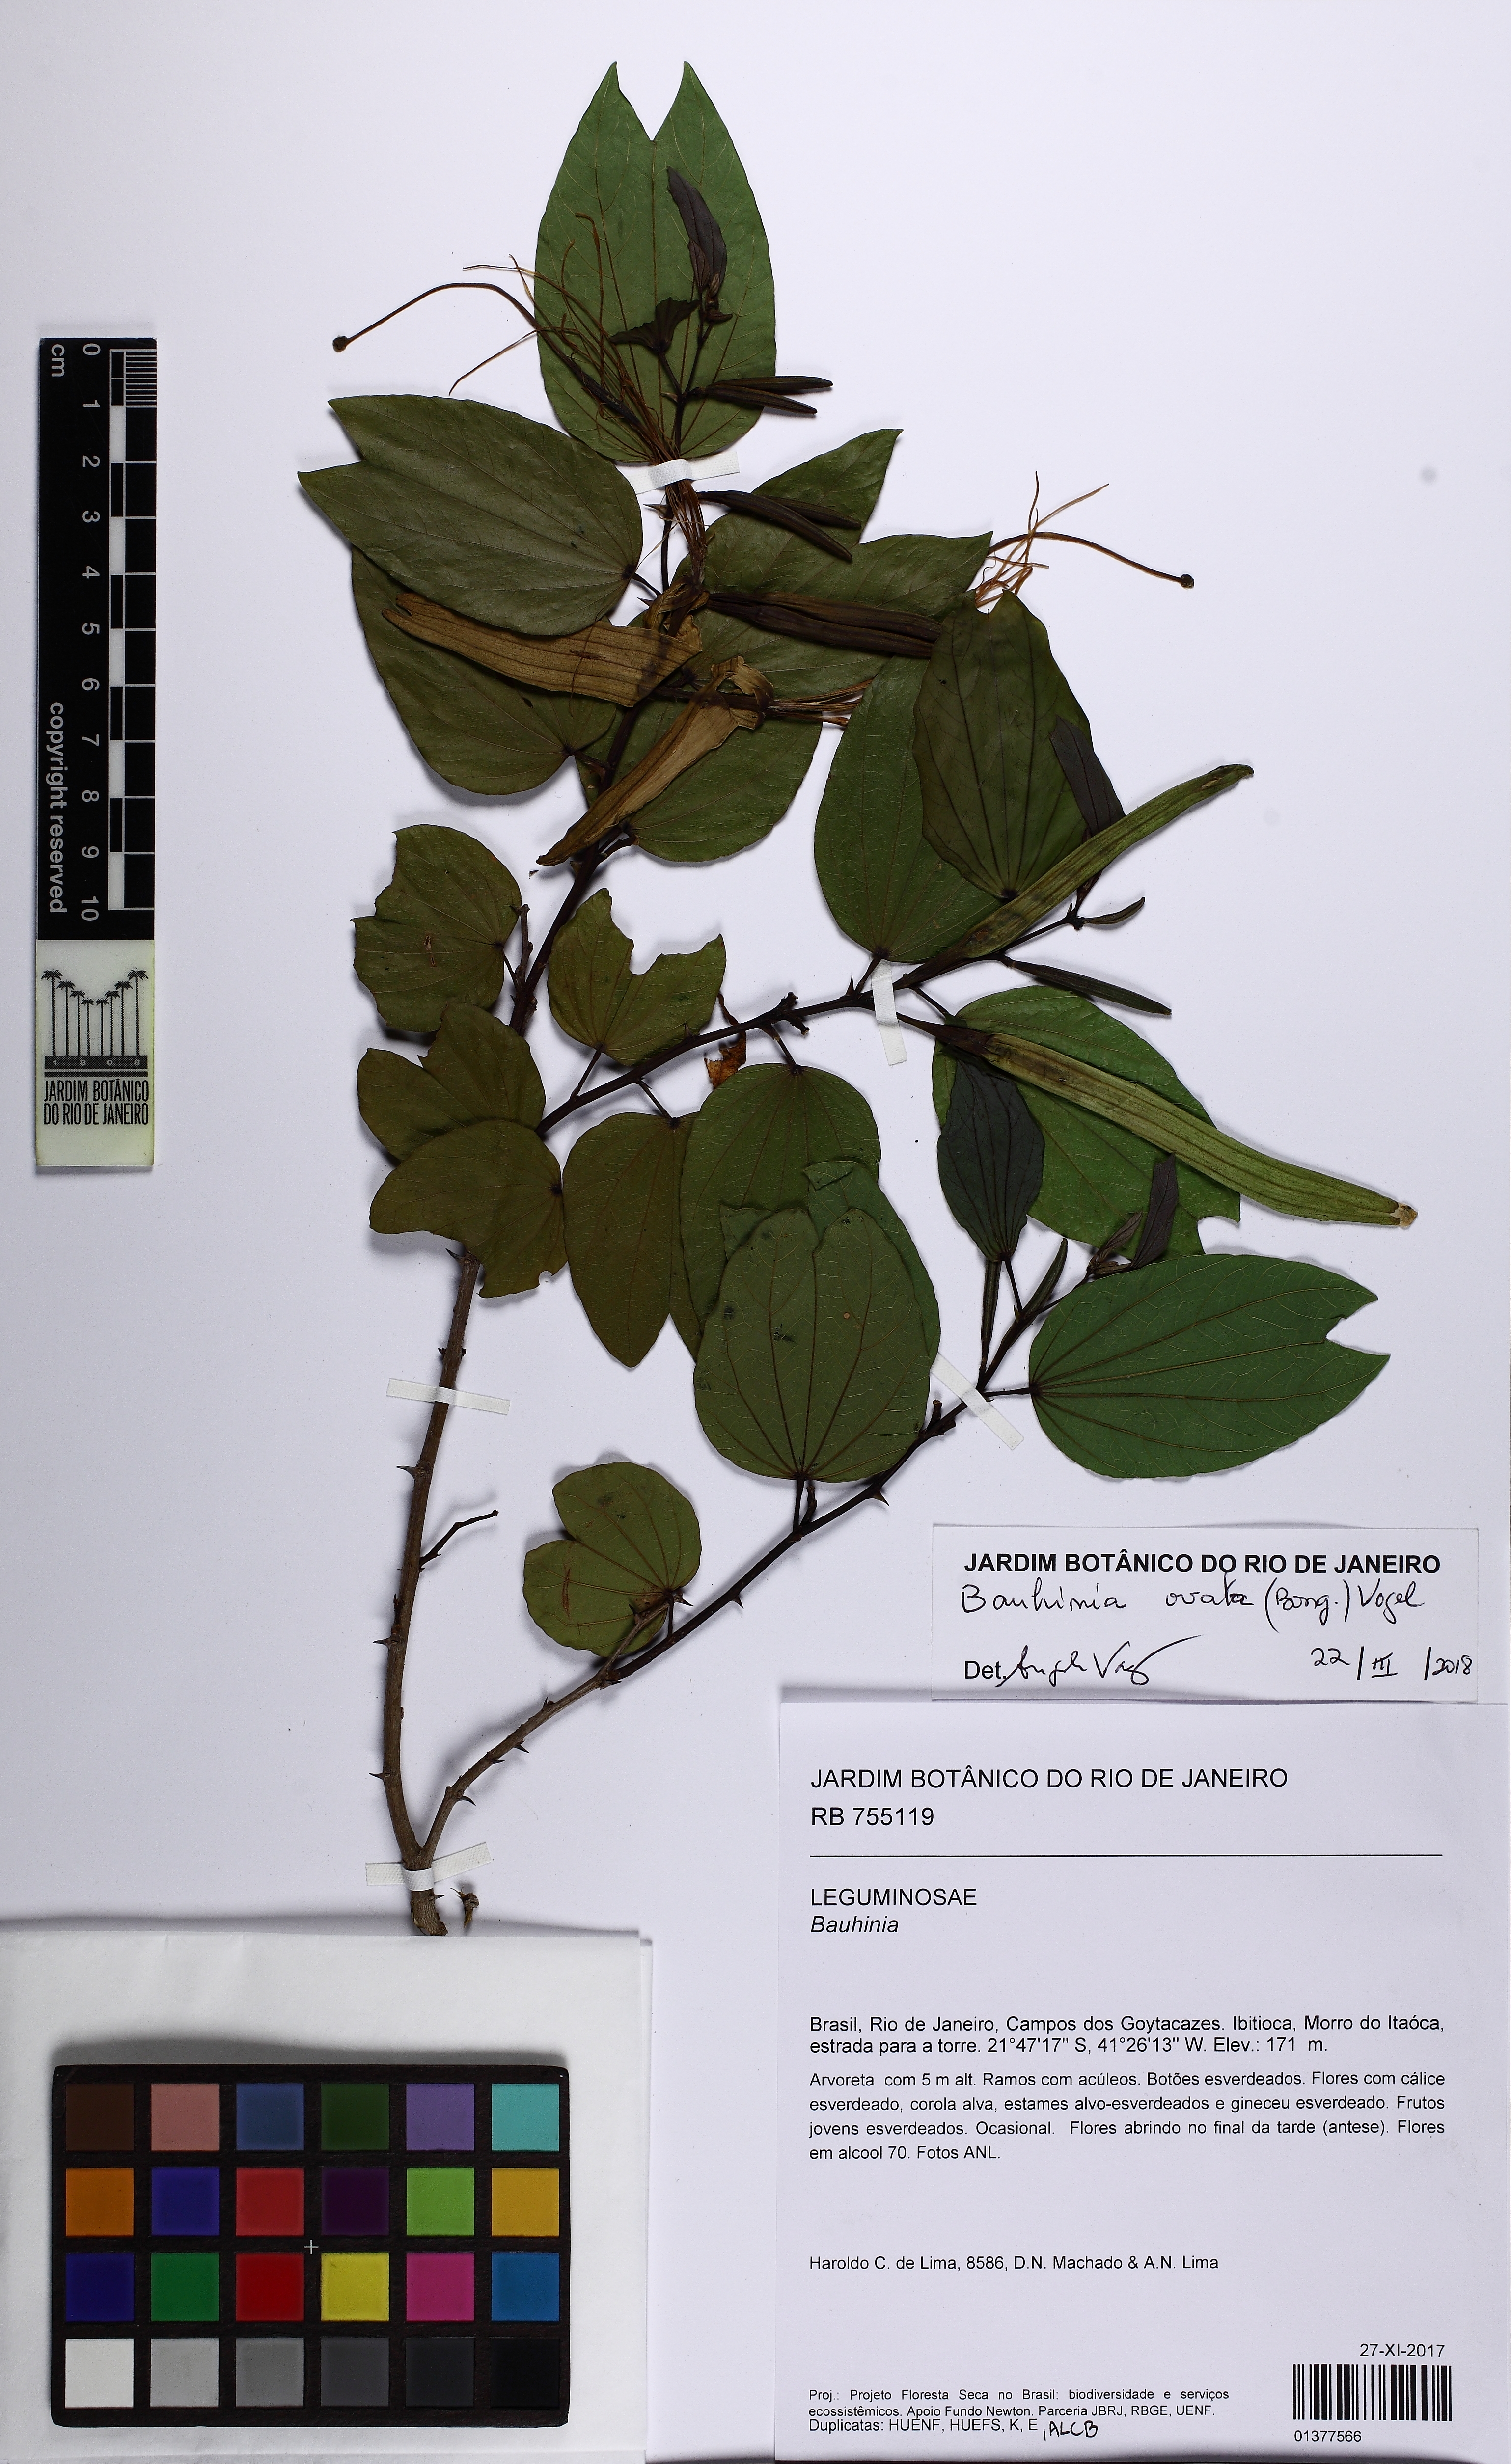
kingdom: Plantae
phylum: Tracheophyta
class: Magnoliopsida
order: Fabales
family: Fabaceae
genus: Bauhinia
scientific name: Bauhinia ovata
